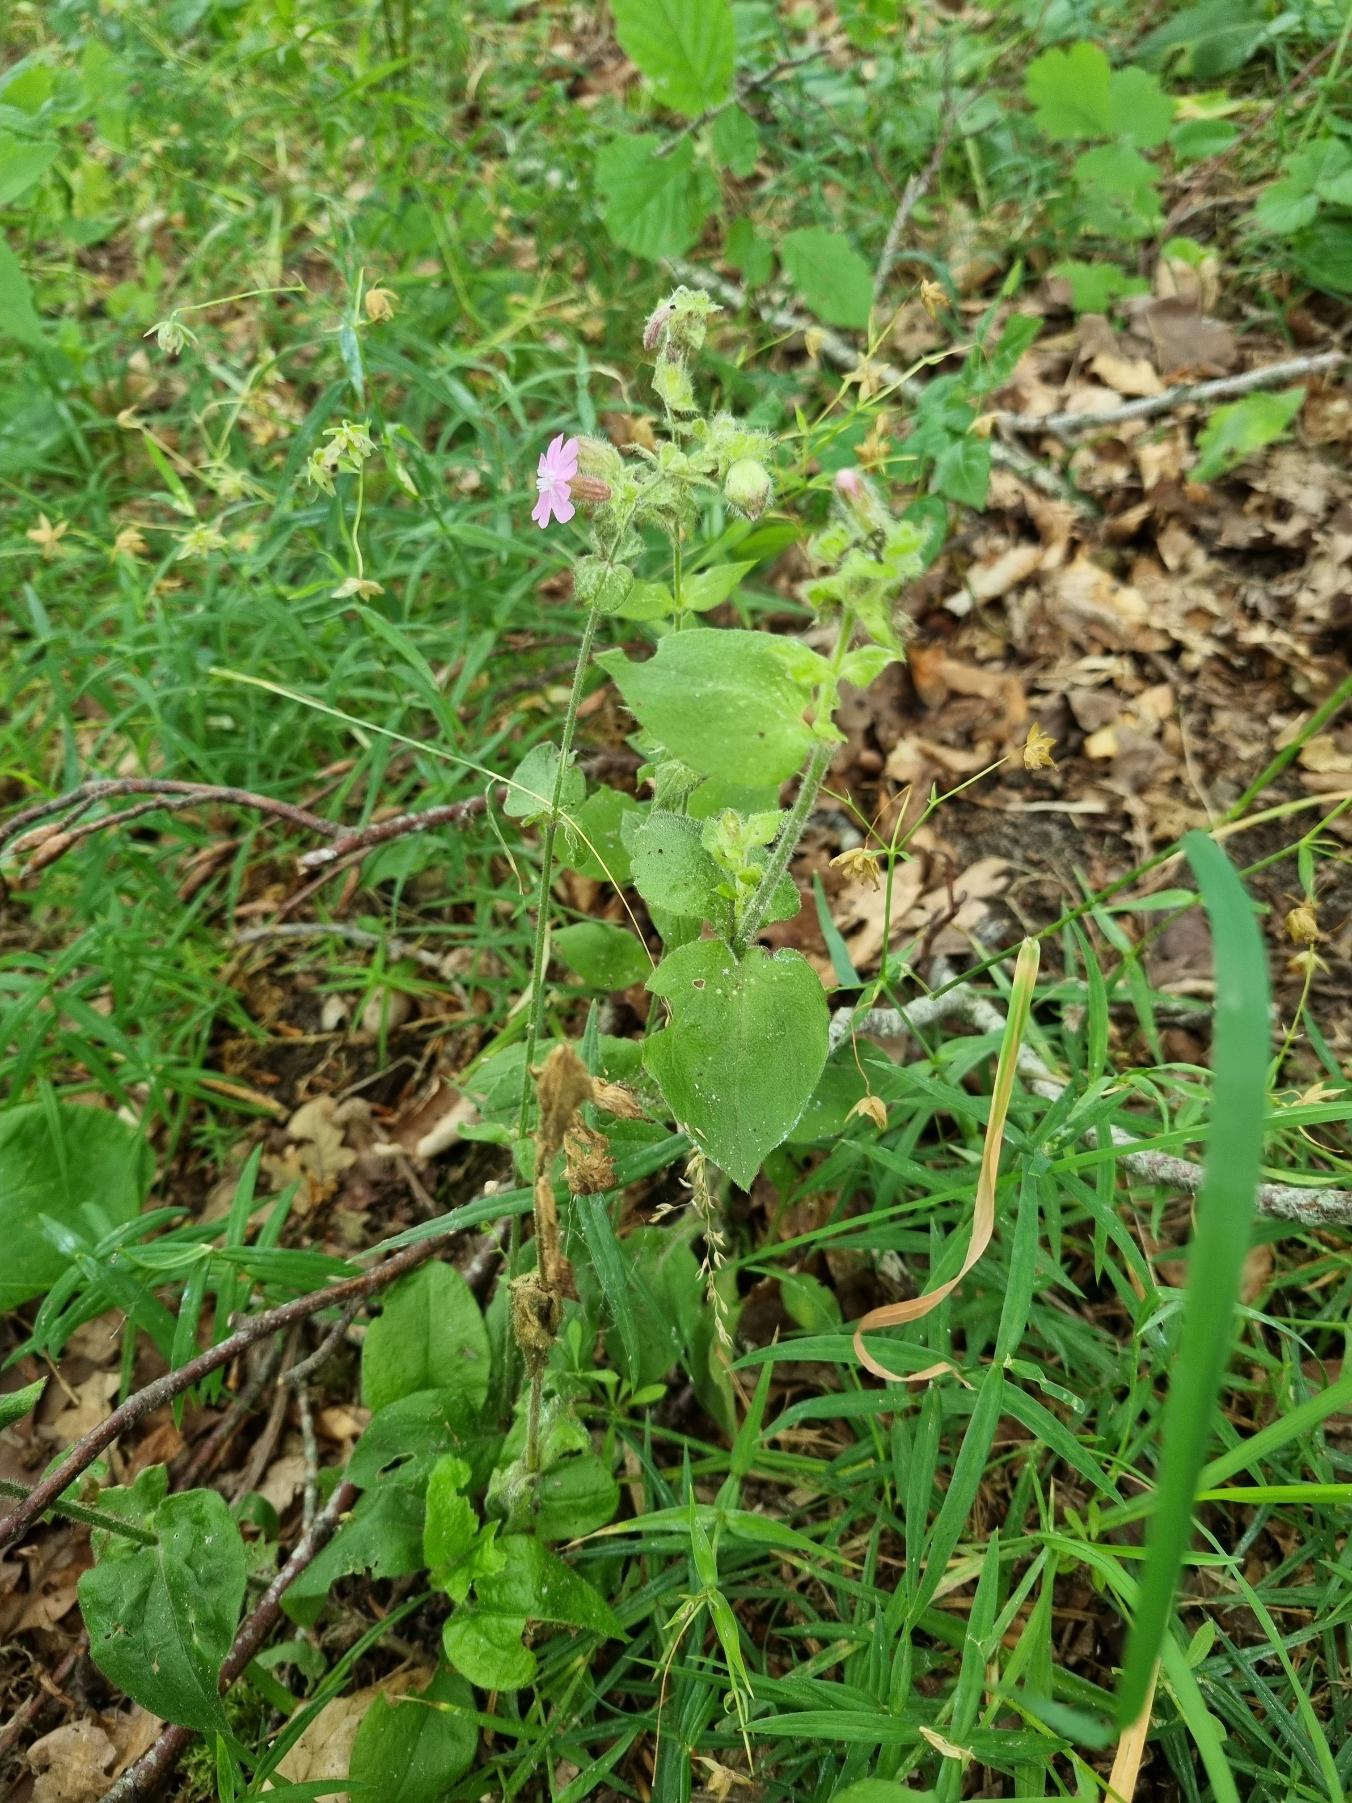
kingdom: Plantae
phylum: Tracheophyta
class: Magnoliopsida
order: Caryophyllales
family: Caryophyllaceae
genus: Silene
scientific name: Silene dioica
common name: Dagpragtstjerne
